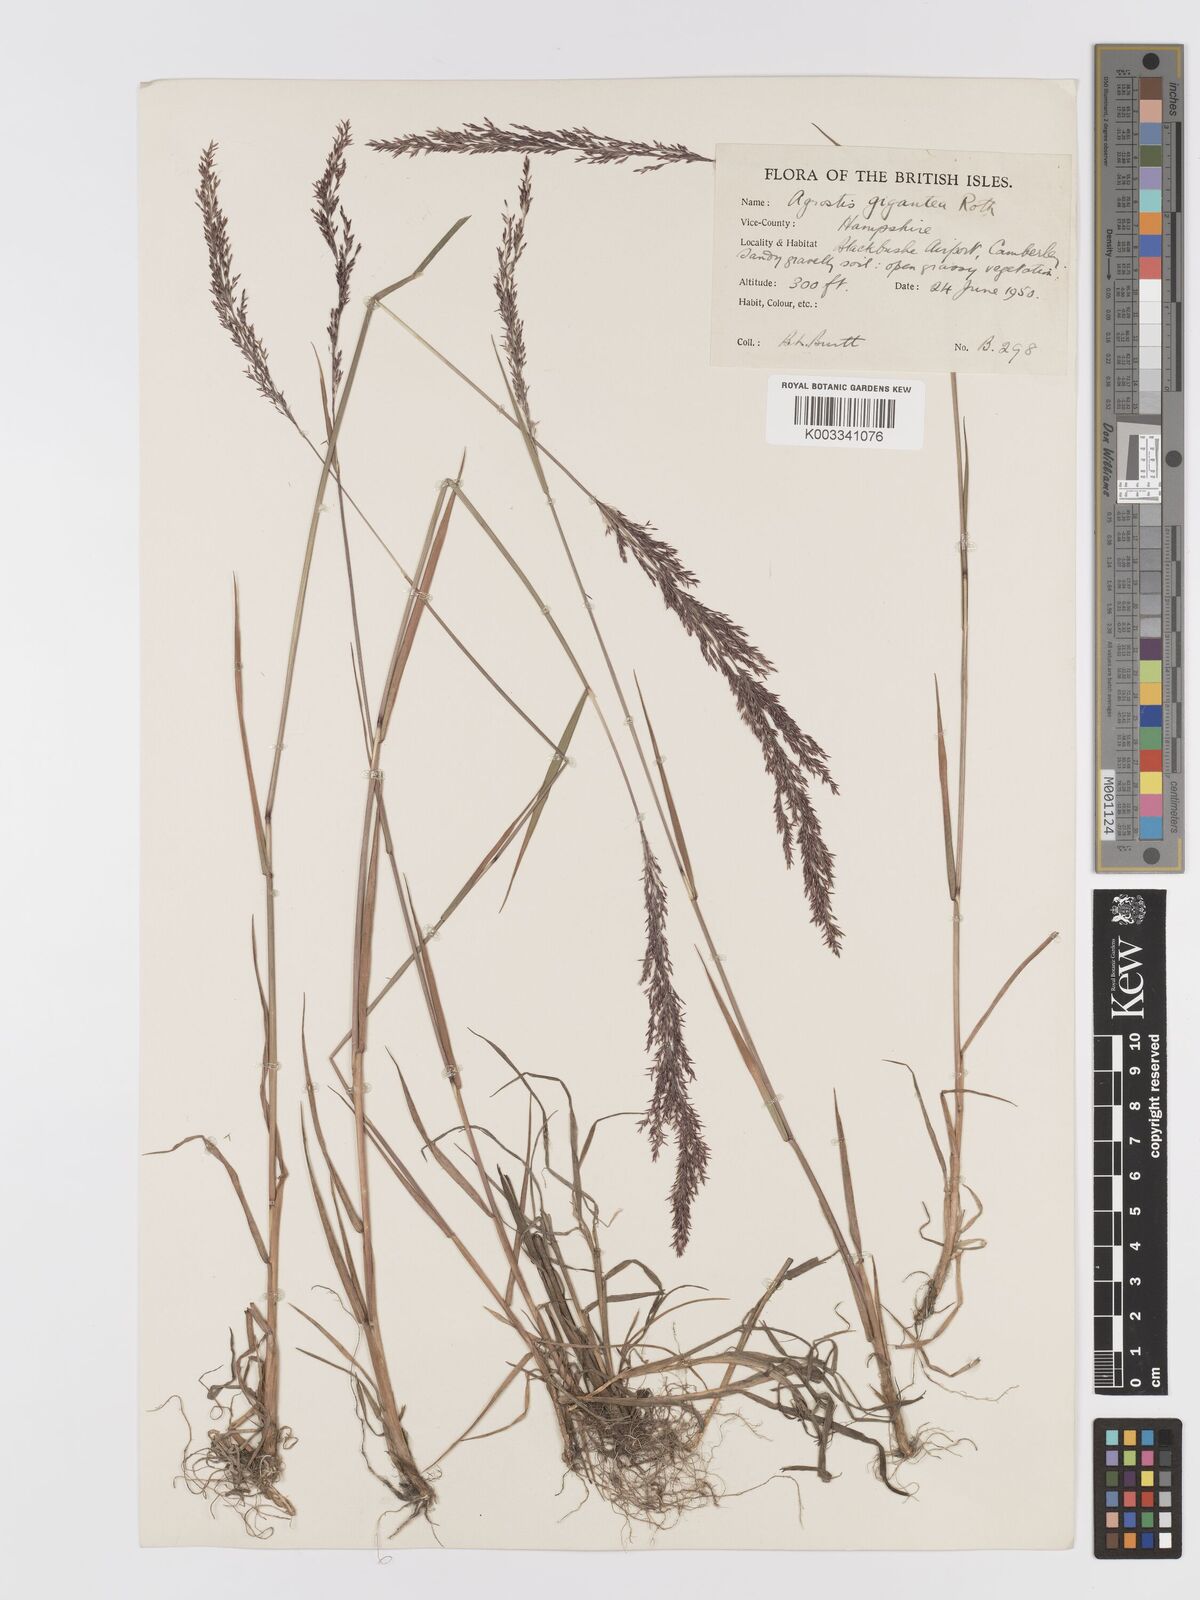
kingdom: Plantae
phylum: Tracheophyta
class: Liliopsida
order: Poales
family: Poaceae
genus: Agrostis
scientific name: Agrostis gigantea
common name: Black bent
